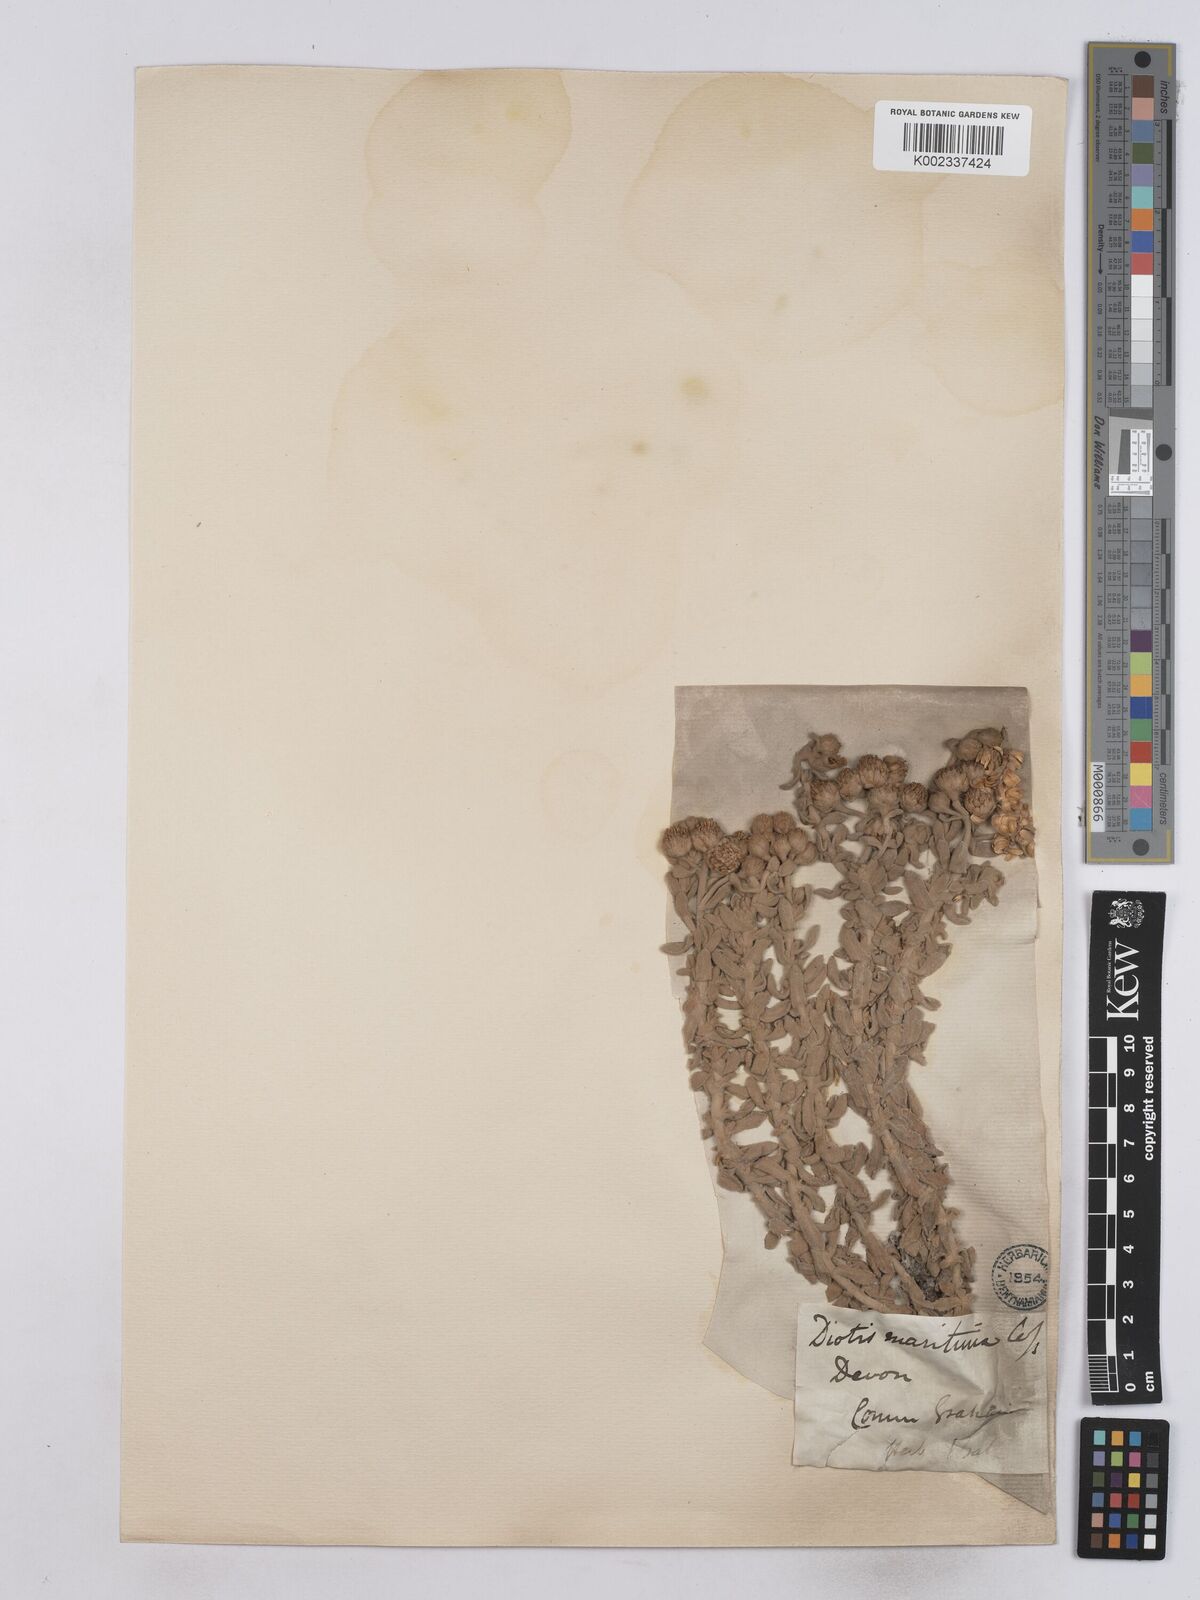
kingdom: Plantae
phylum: Tracheophyta
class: Magnoliopsida
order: Asterales
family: Asteraceae
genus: Achillea
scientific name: Achillea maritima
